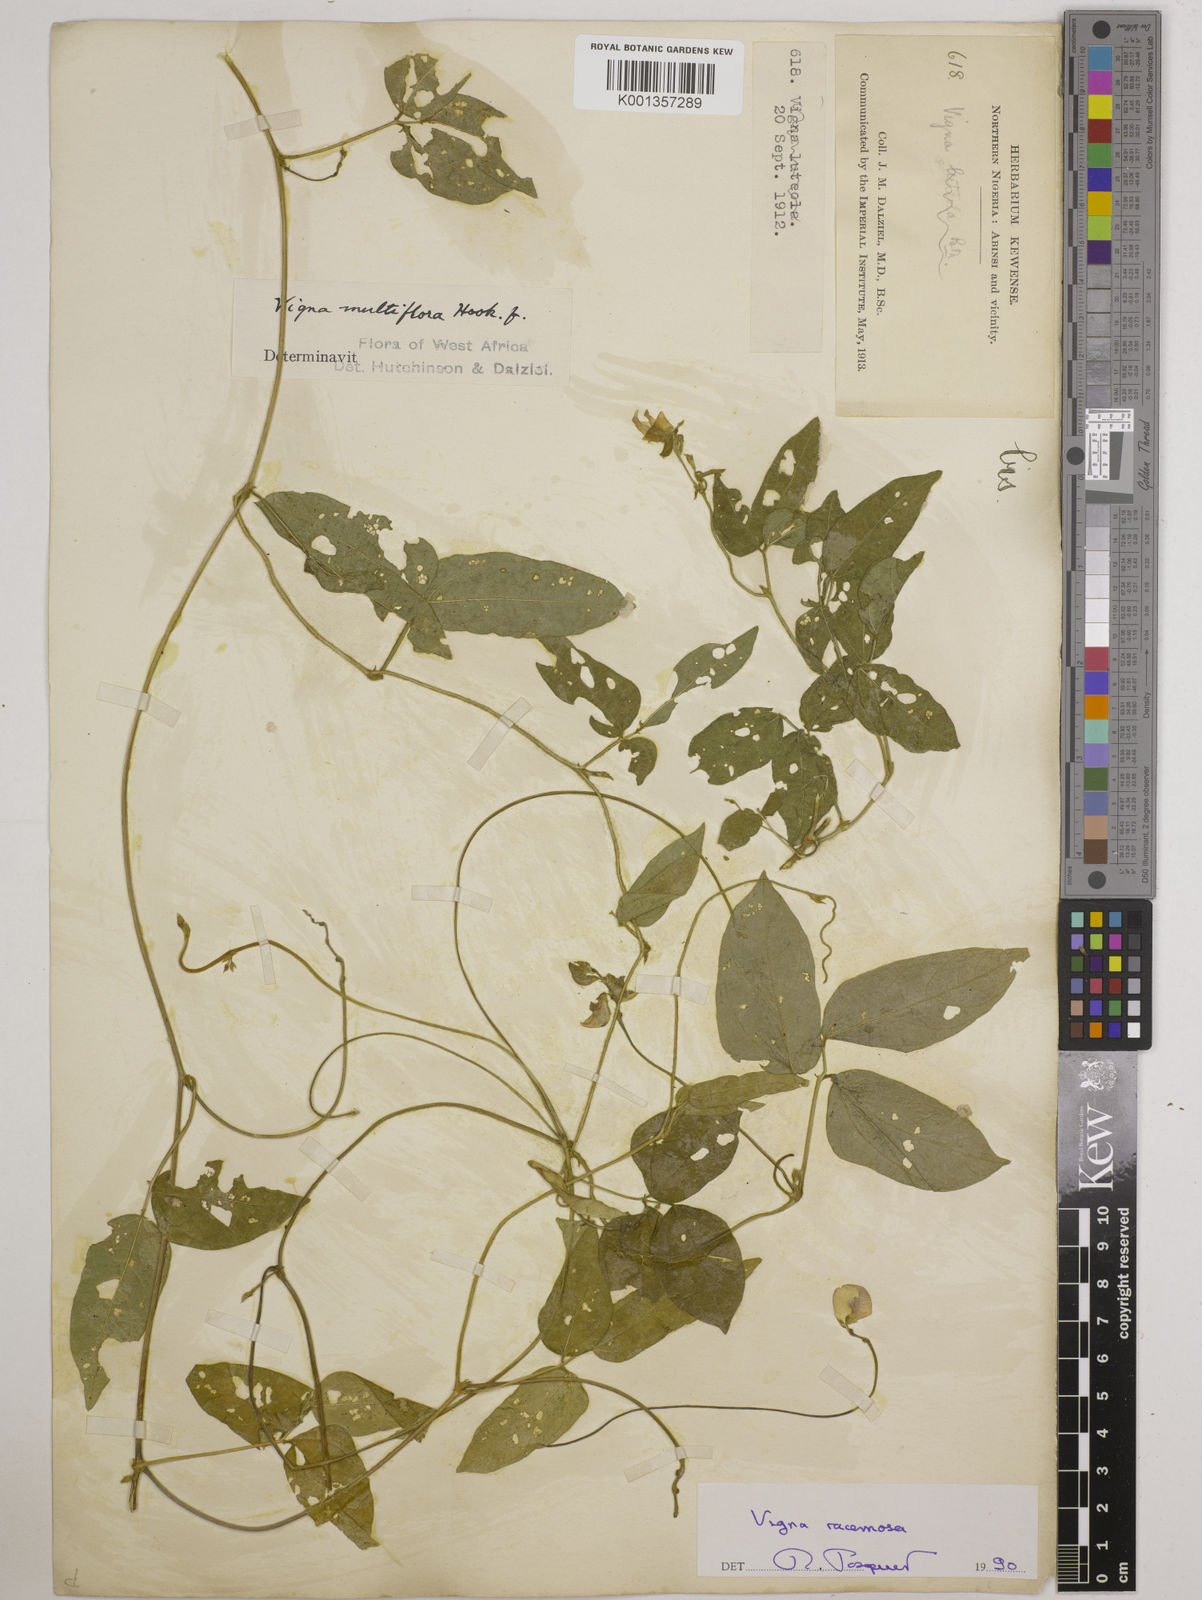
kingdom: Plantae
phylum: Tracheophyta
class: Magnoliopsida
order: Fabales
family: Fabaceae
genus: Vigna
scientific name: Vigna racemosa
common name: Beans not eaten
